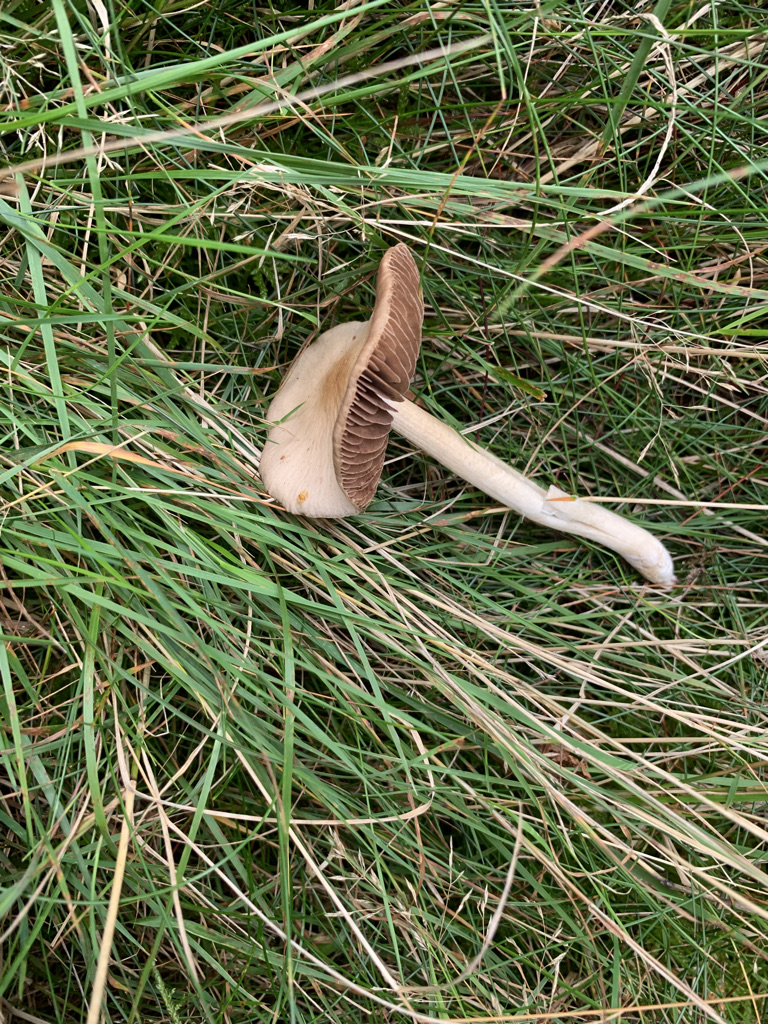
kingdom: Fungi
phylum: Basidiomycota
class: Agaricomycetes
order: Agaricales
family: Psathyrellaceae
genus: Psathyrella
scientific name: Psathyrella piluliformis
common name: lysstokket mørkhat
